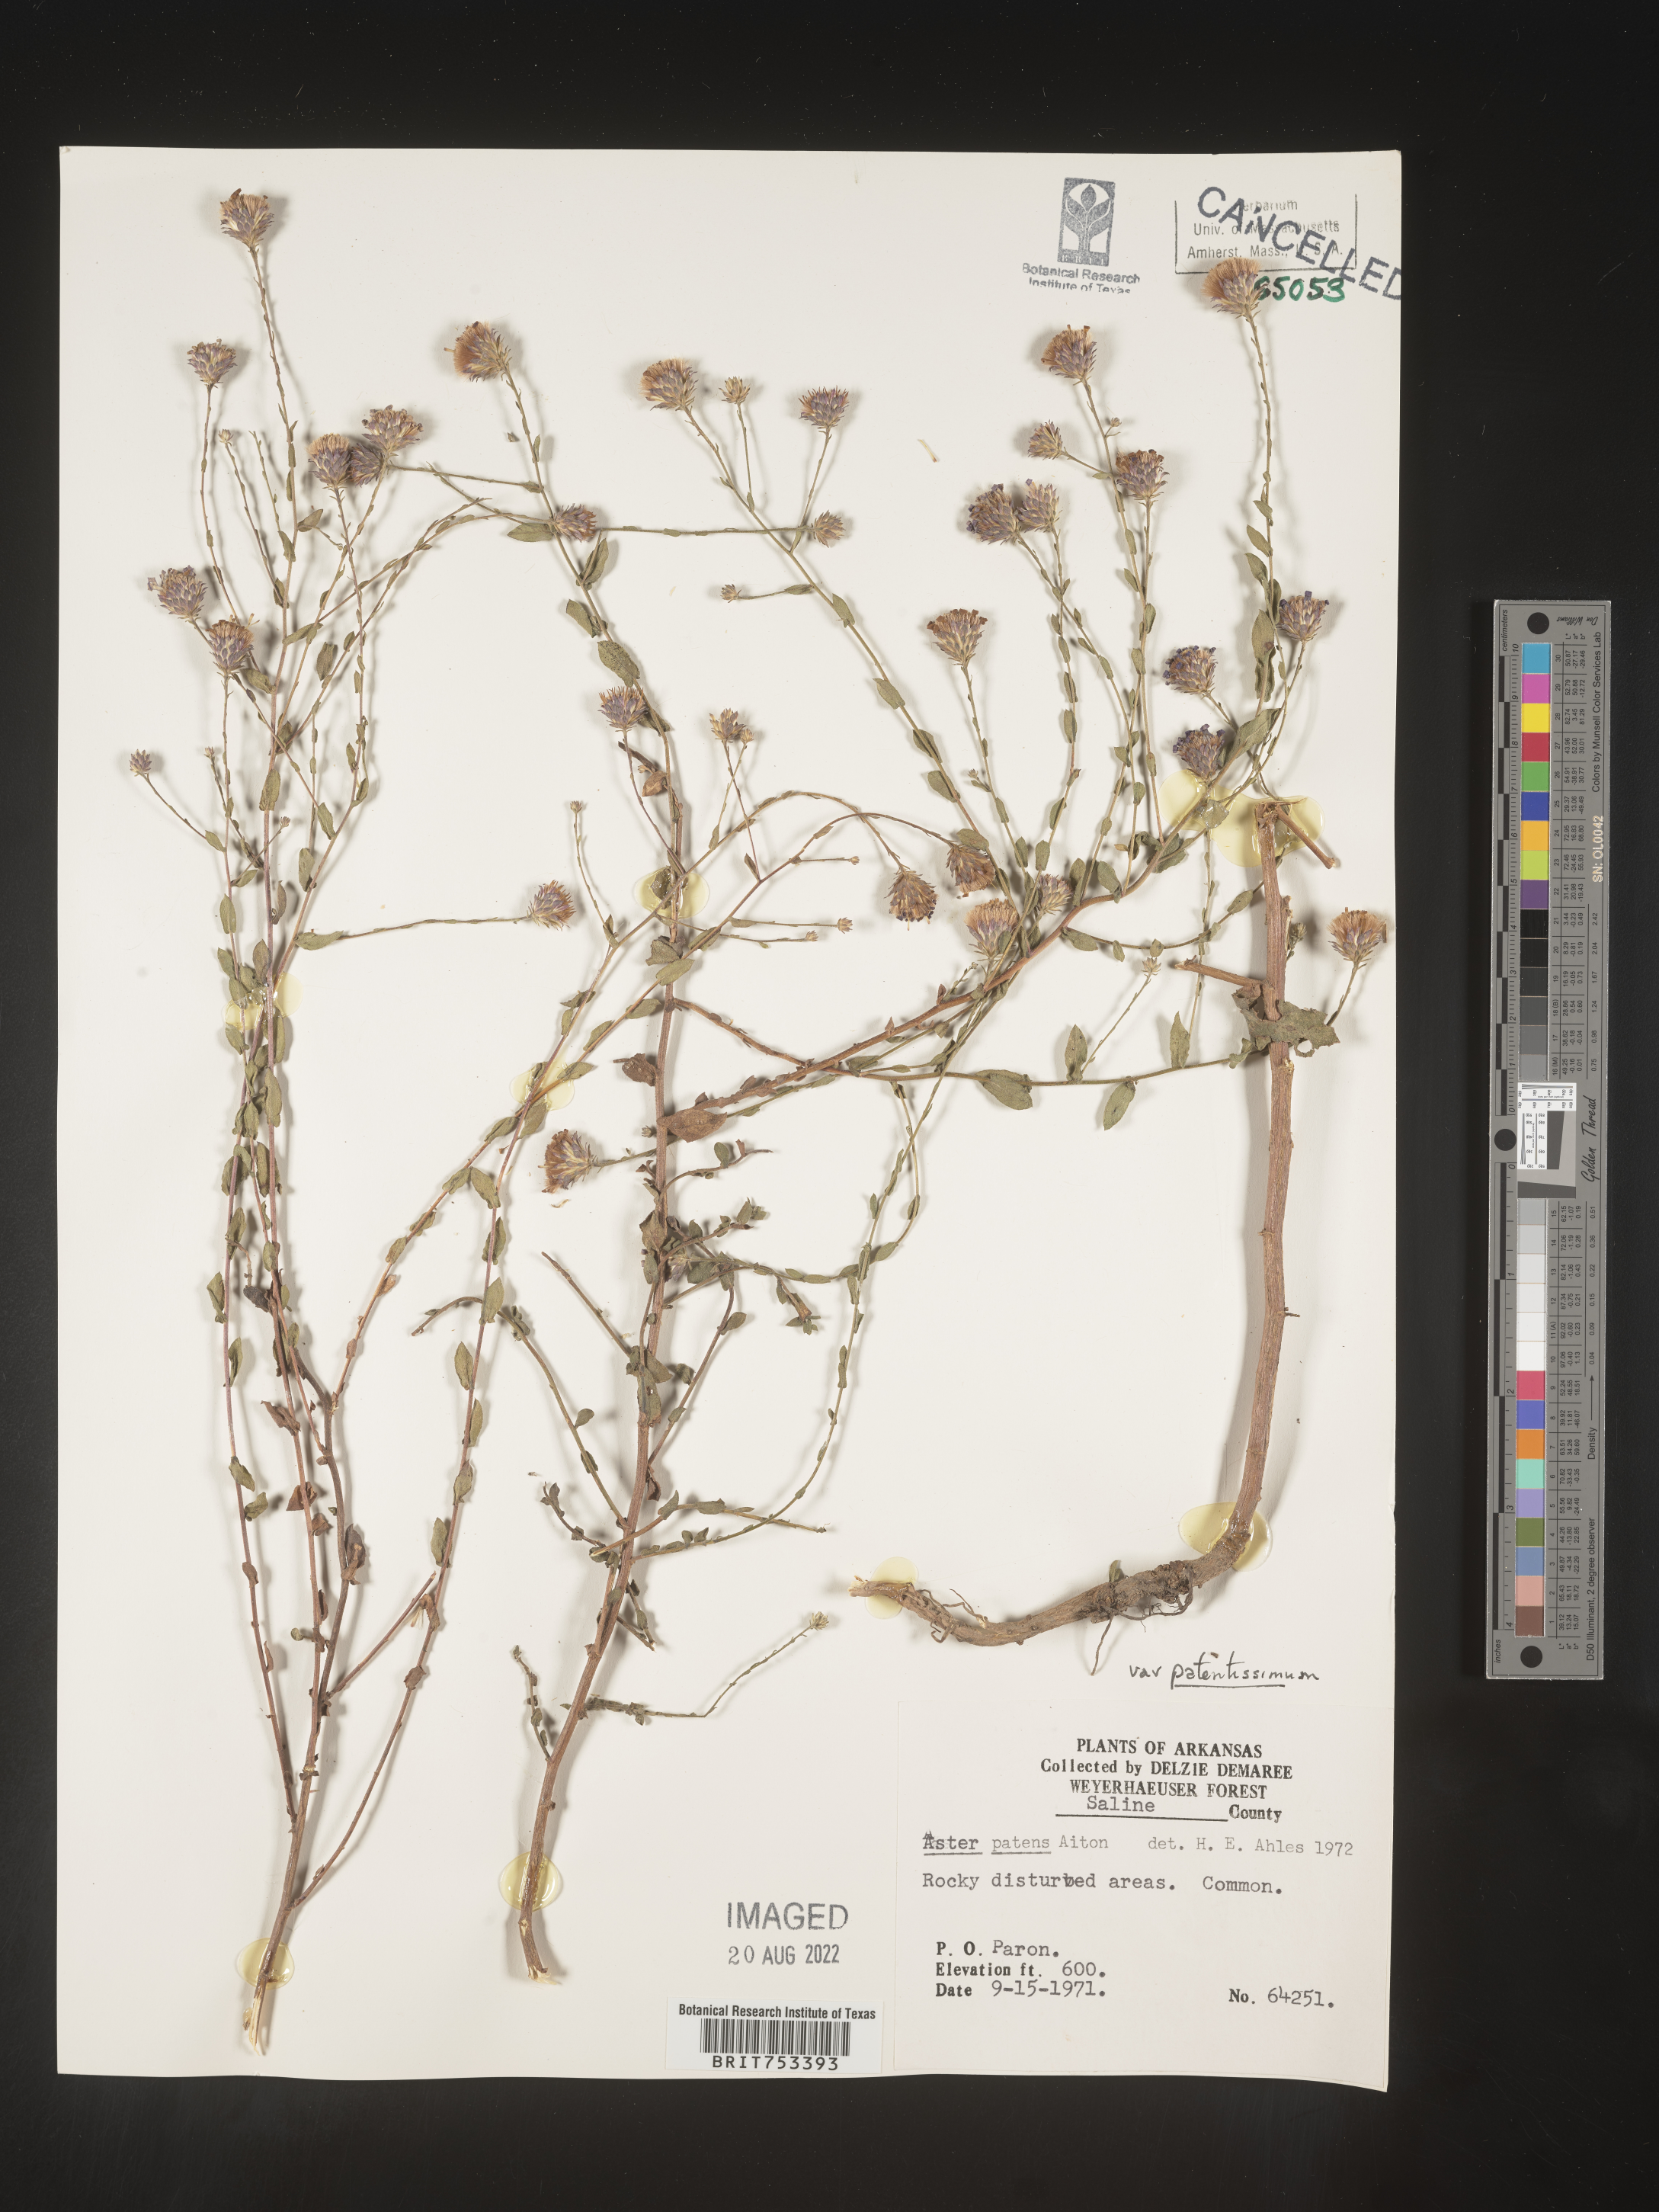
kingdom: Plantae
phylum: Tracheophyta
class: Magnoliopsida
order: Asterales
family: Asteraceae
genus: Symphyotrichum
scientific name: Symphyotrichum patens
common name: Late purple aster
